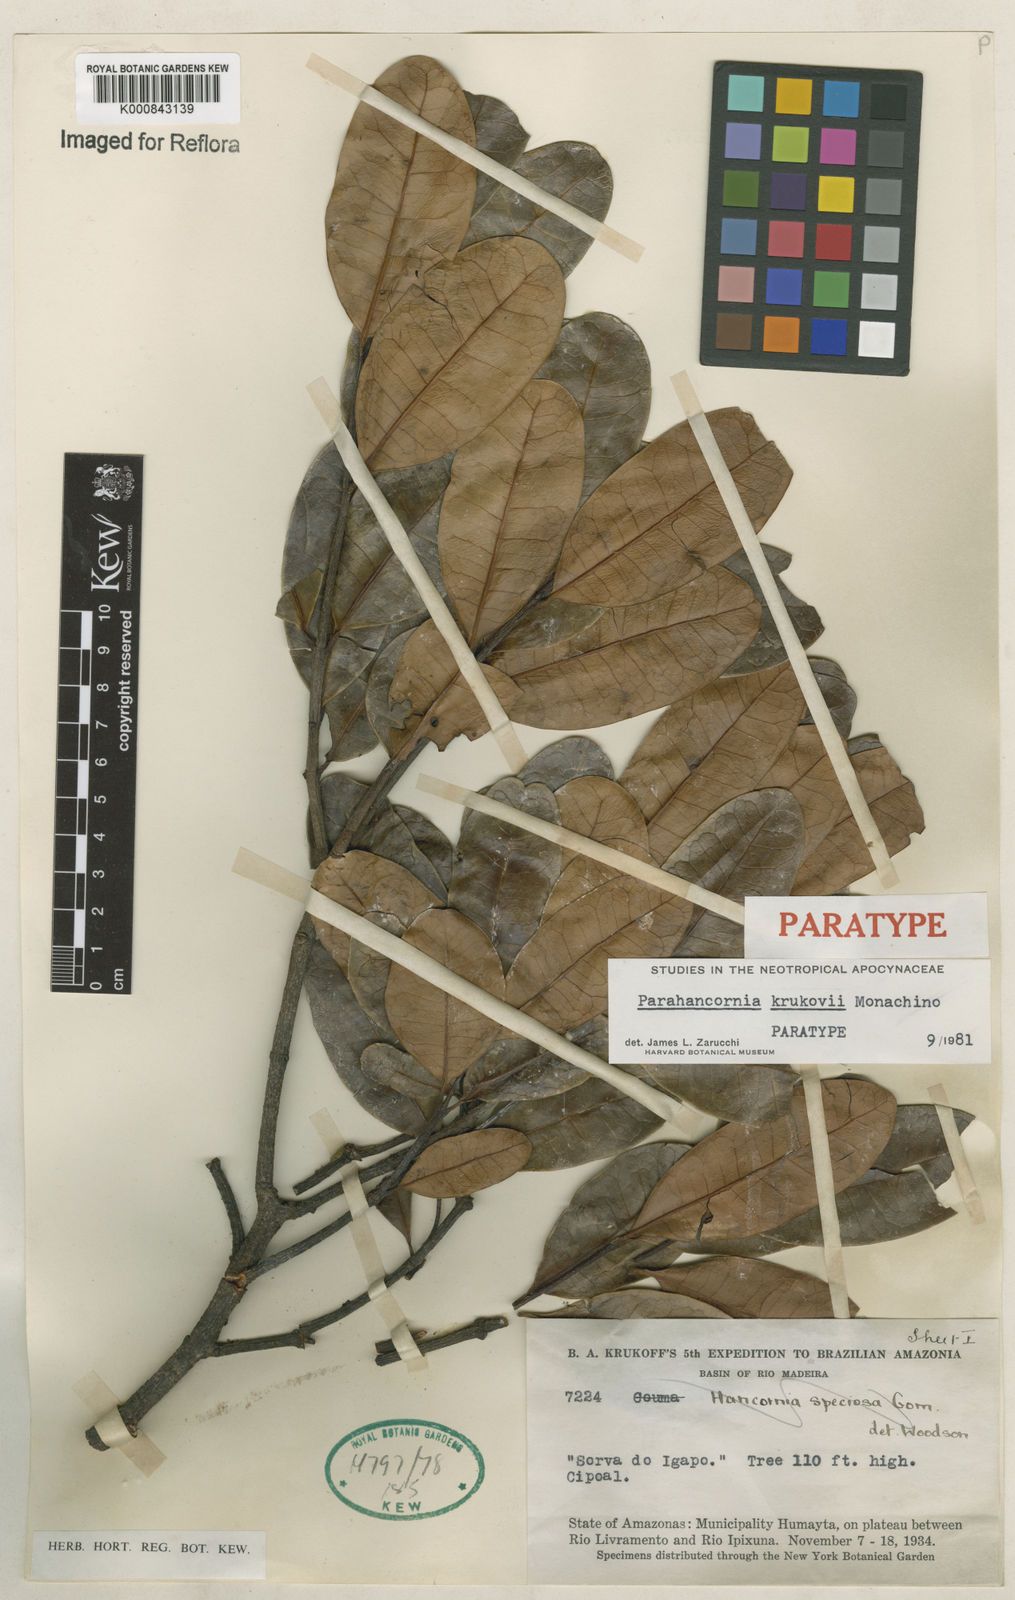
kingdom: Plantae
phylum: Tracheophyta
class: Magnoliopsida
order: Gentianales
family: Apocynaceae
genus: Parahancornia
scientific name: Parahancornia oblonga
